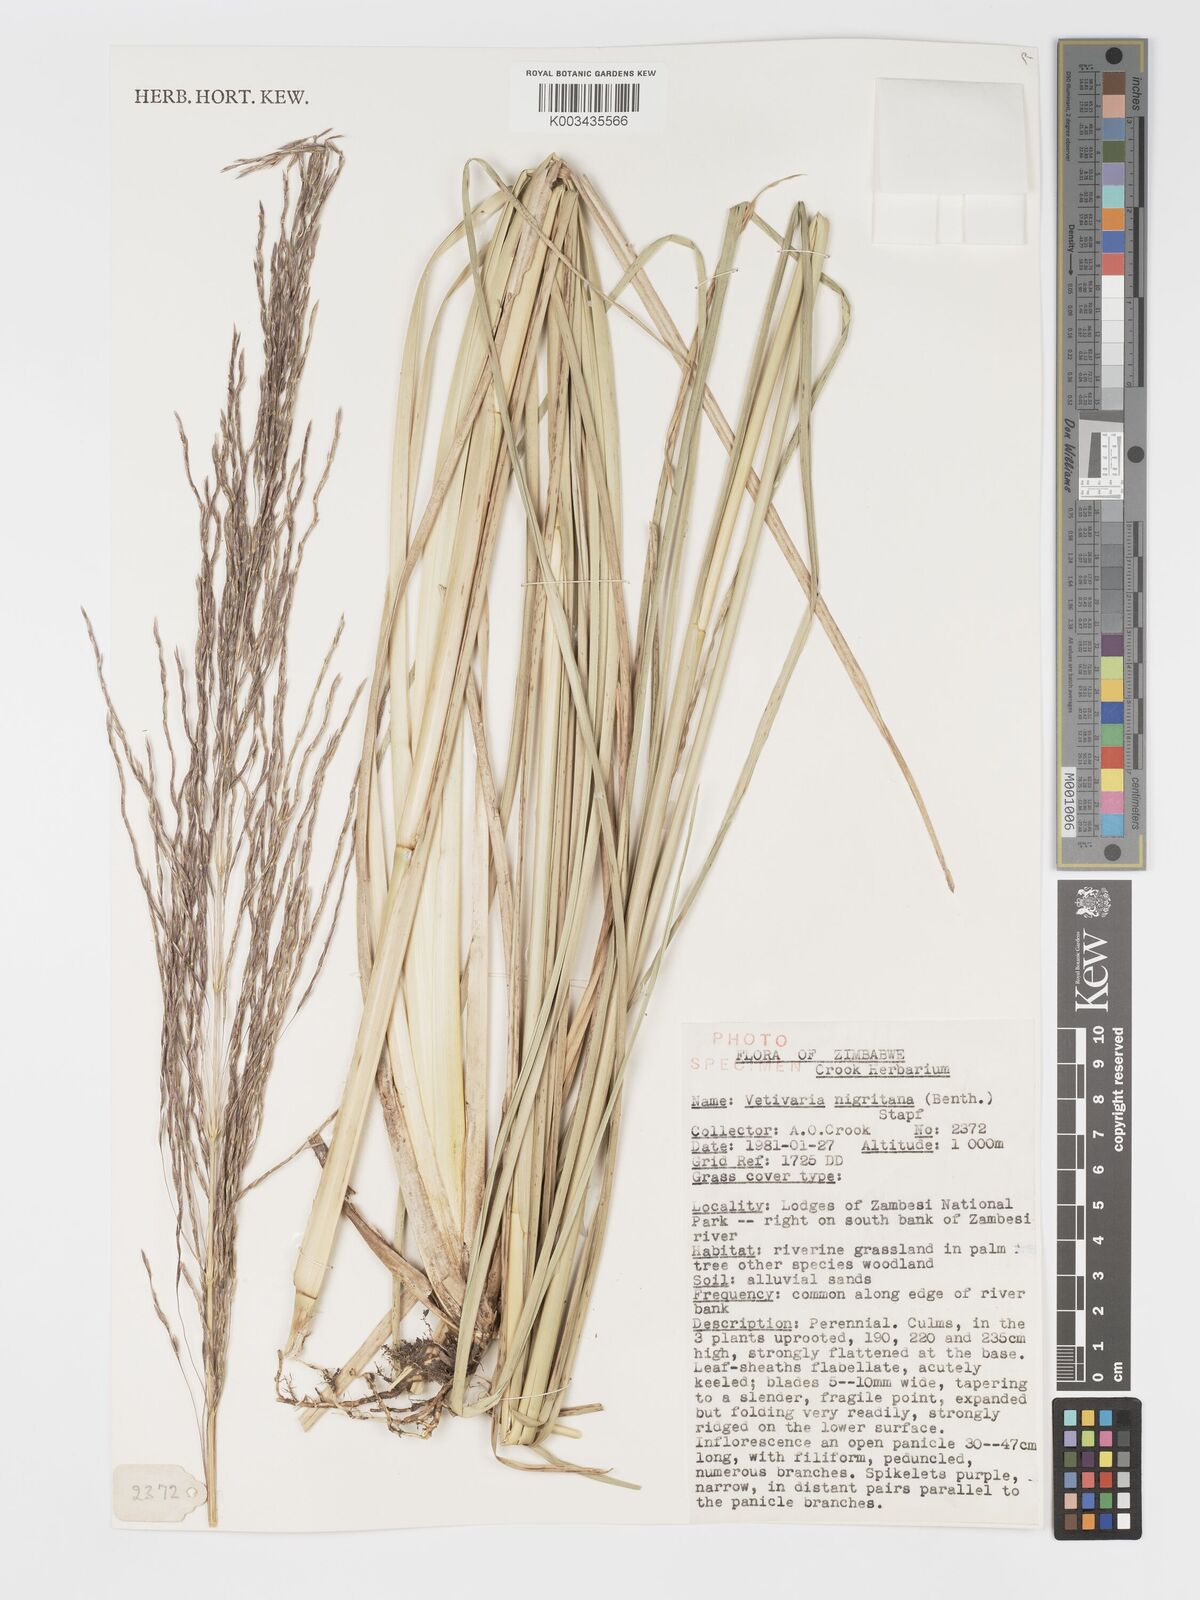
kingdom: Plantae
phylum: Tracheophyta
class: Liliopsida
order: Poales
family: Poaceae
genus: Chrysopogon
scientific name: Chrysopogon nigritanus
